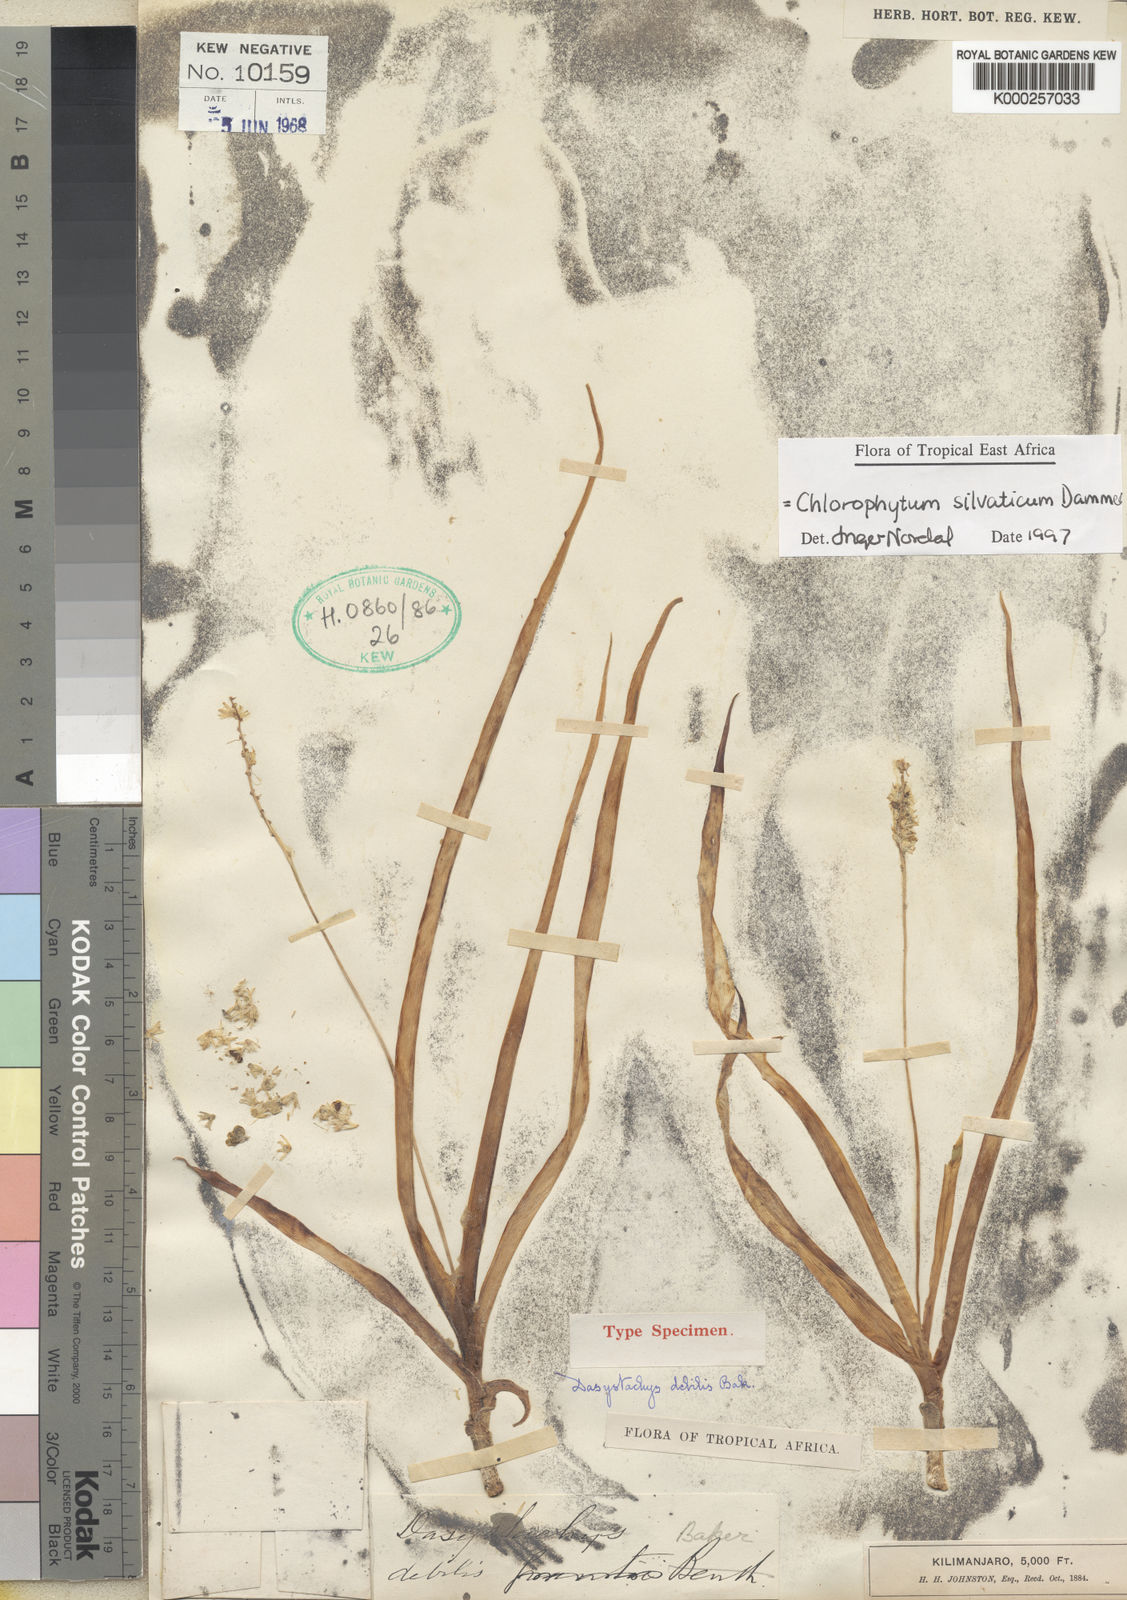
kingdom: Plantae
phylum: Tracheophyta
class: Liliopsida
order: Asparagales
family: Asparagaceae
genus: Chlorophytum
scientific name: Chlorophytum africanum
